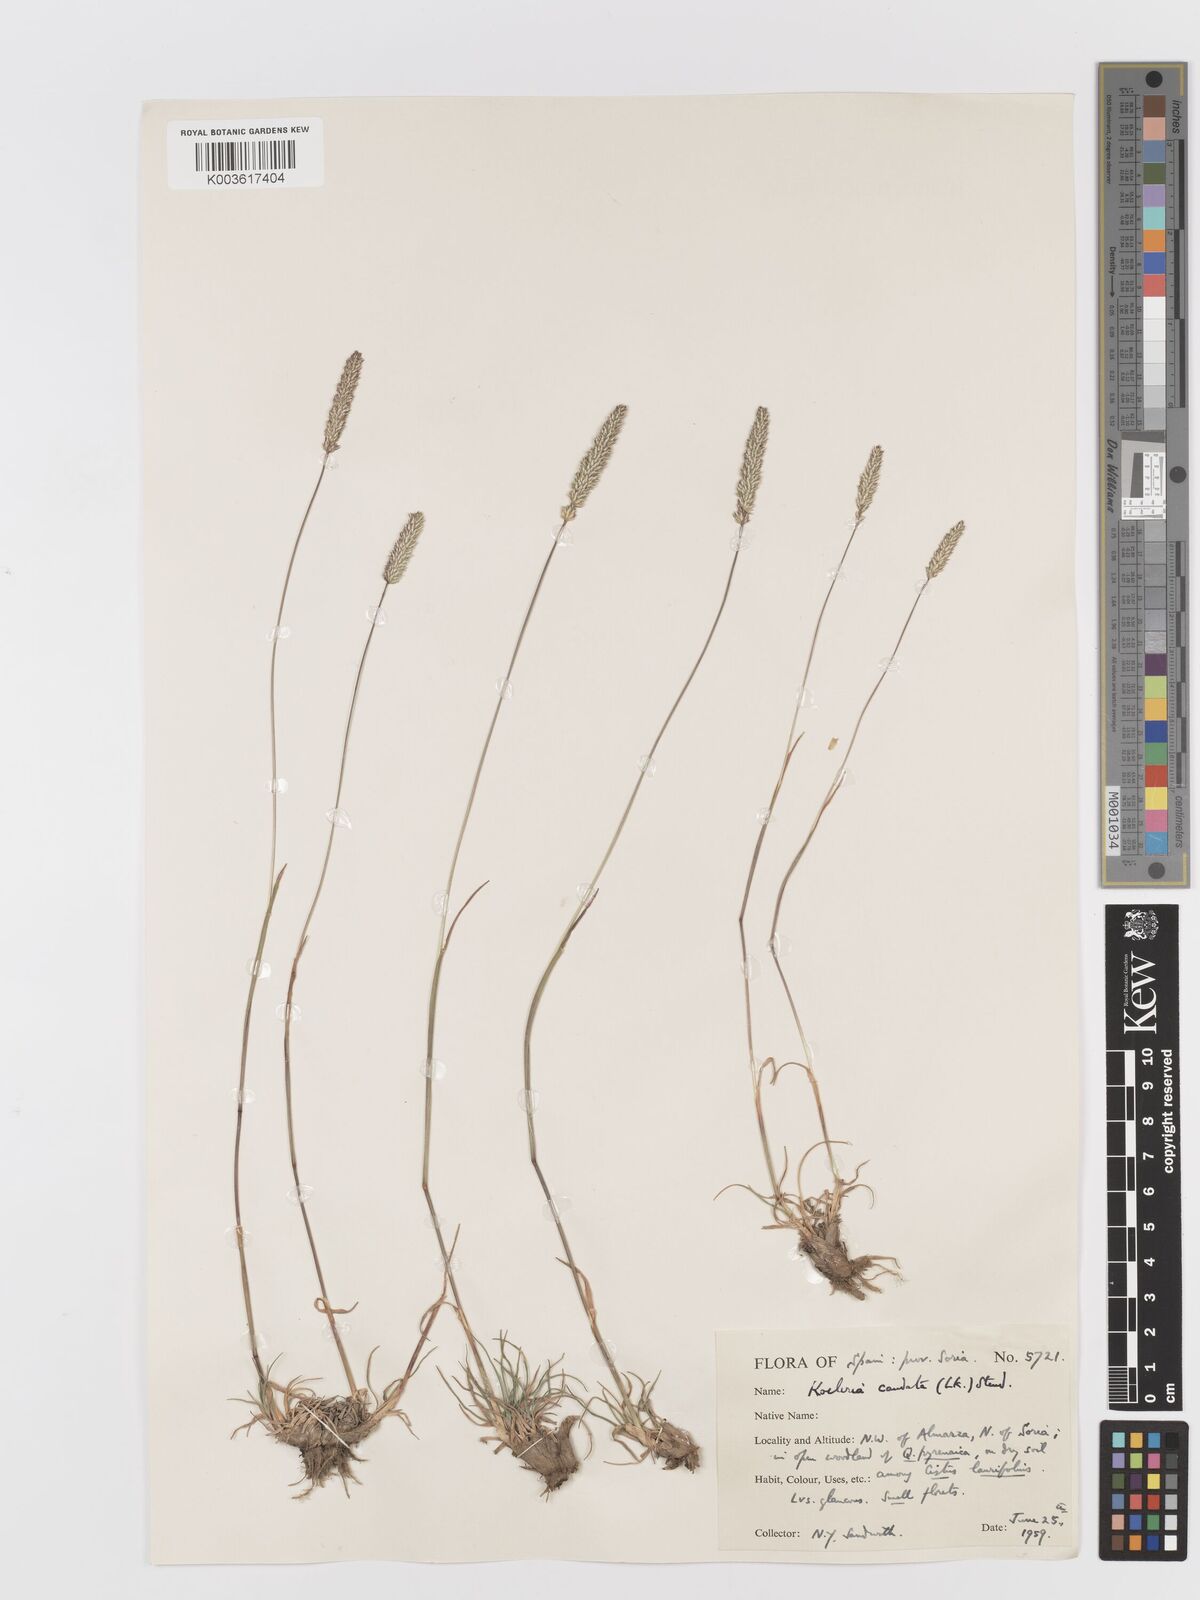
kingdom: Plantae
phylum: Tracheophyta
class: Liliopsida
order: Poales
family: Poaceae
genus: Koeleria
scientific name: Koeleria crassipes
